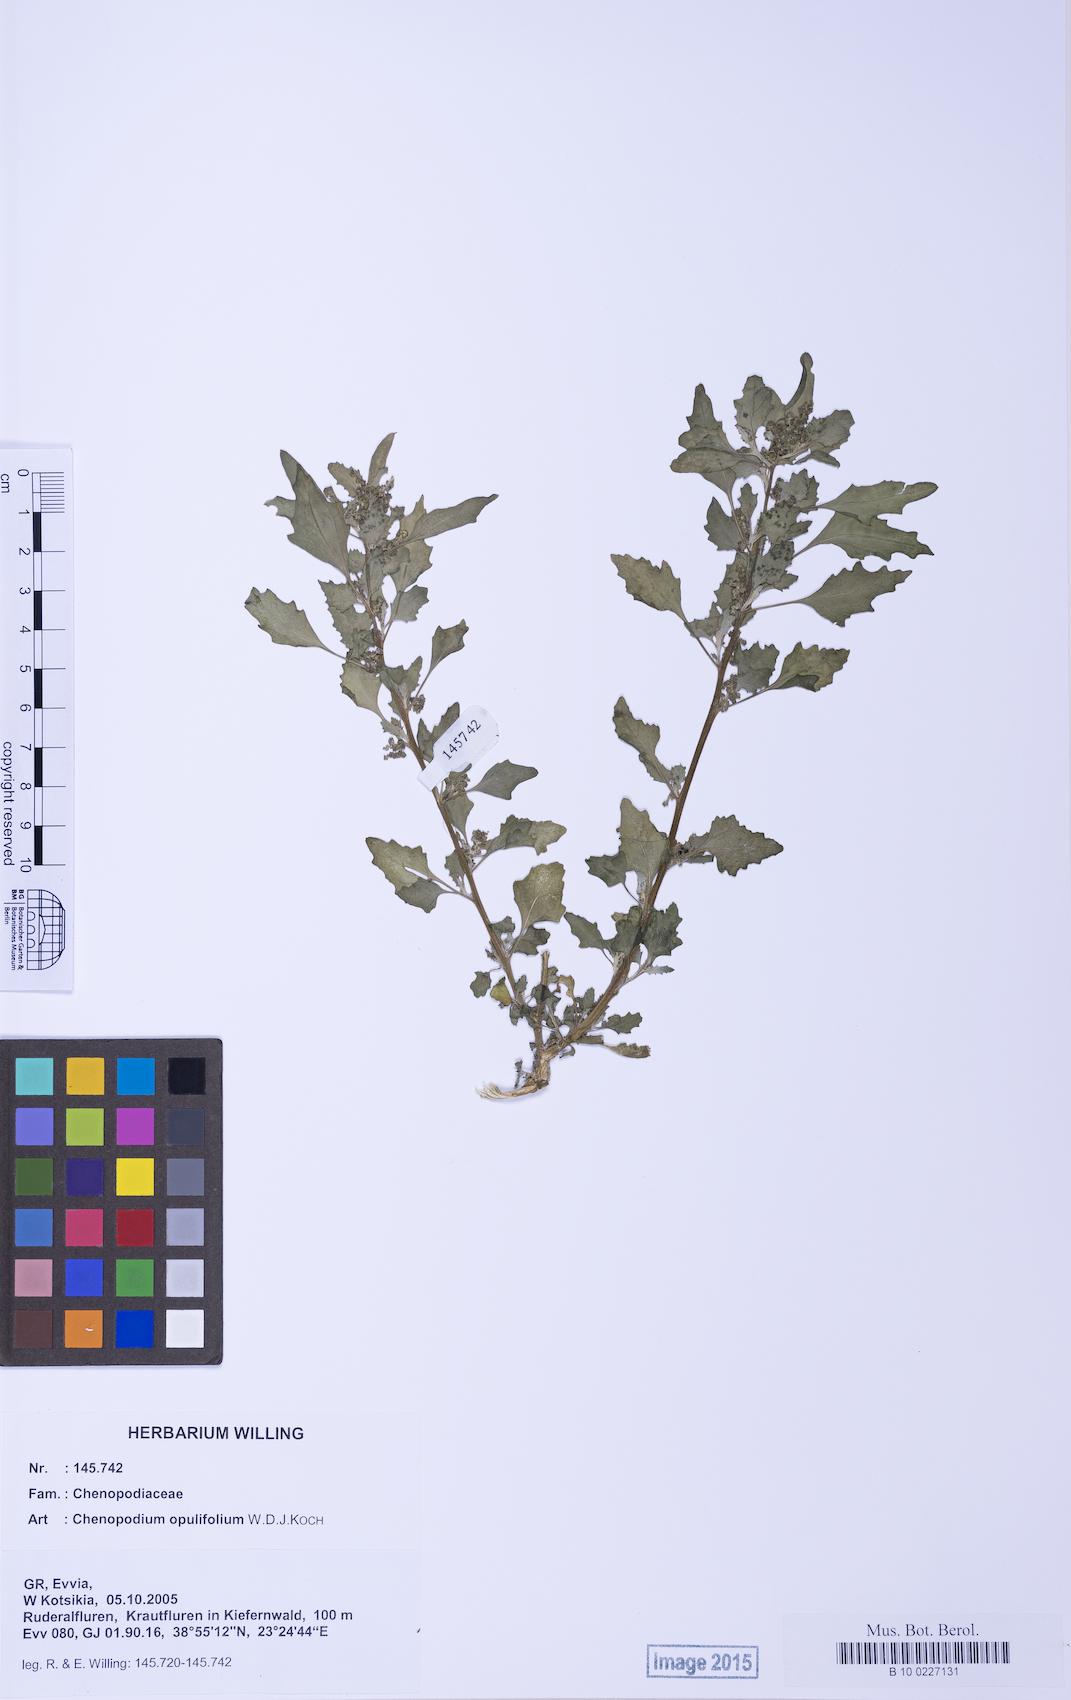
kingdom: Plantae
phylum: Tracheophyta
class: Magnoliopsida
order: Caryophyllales
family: Amaranthaceae
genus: Chenopodiastrum
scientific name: Chenopodiastrum murale
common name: Sowbane
